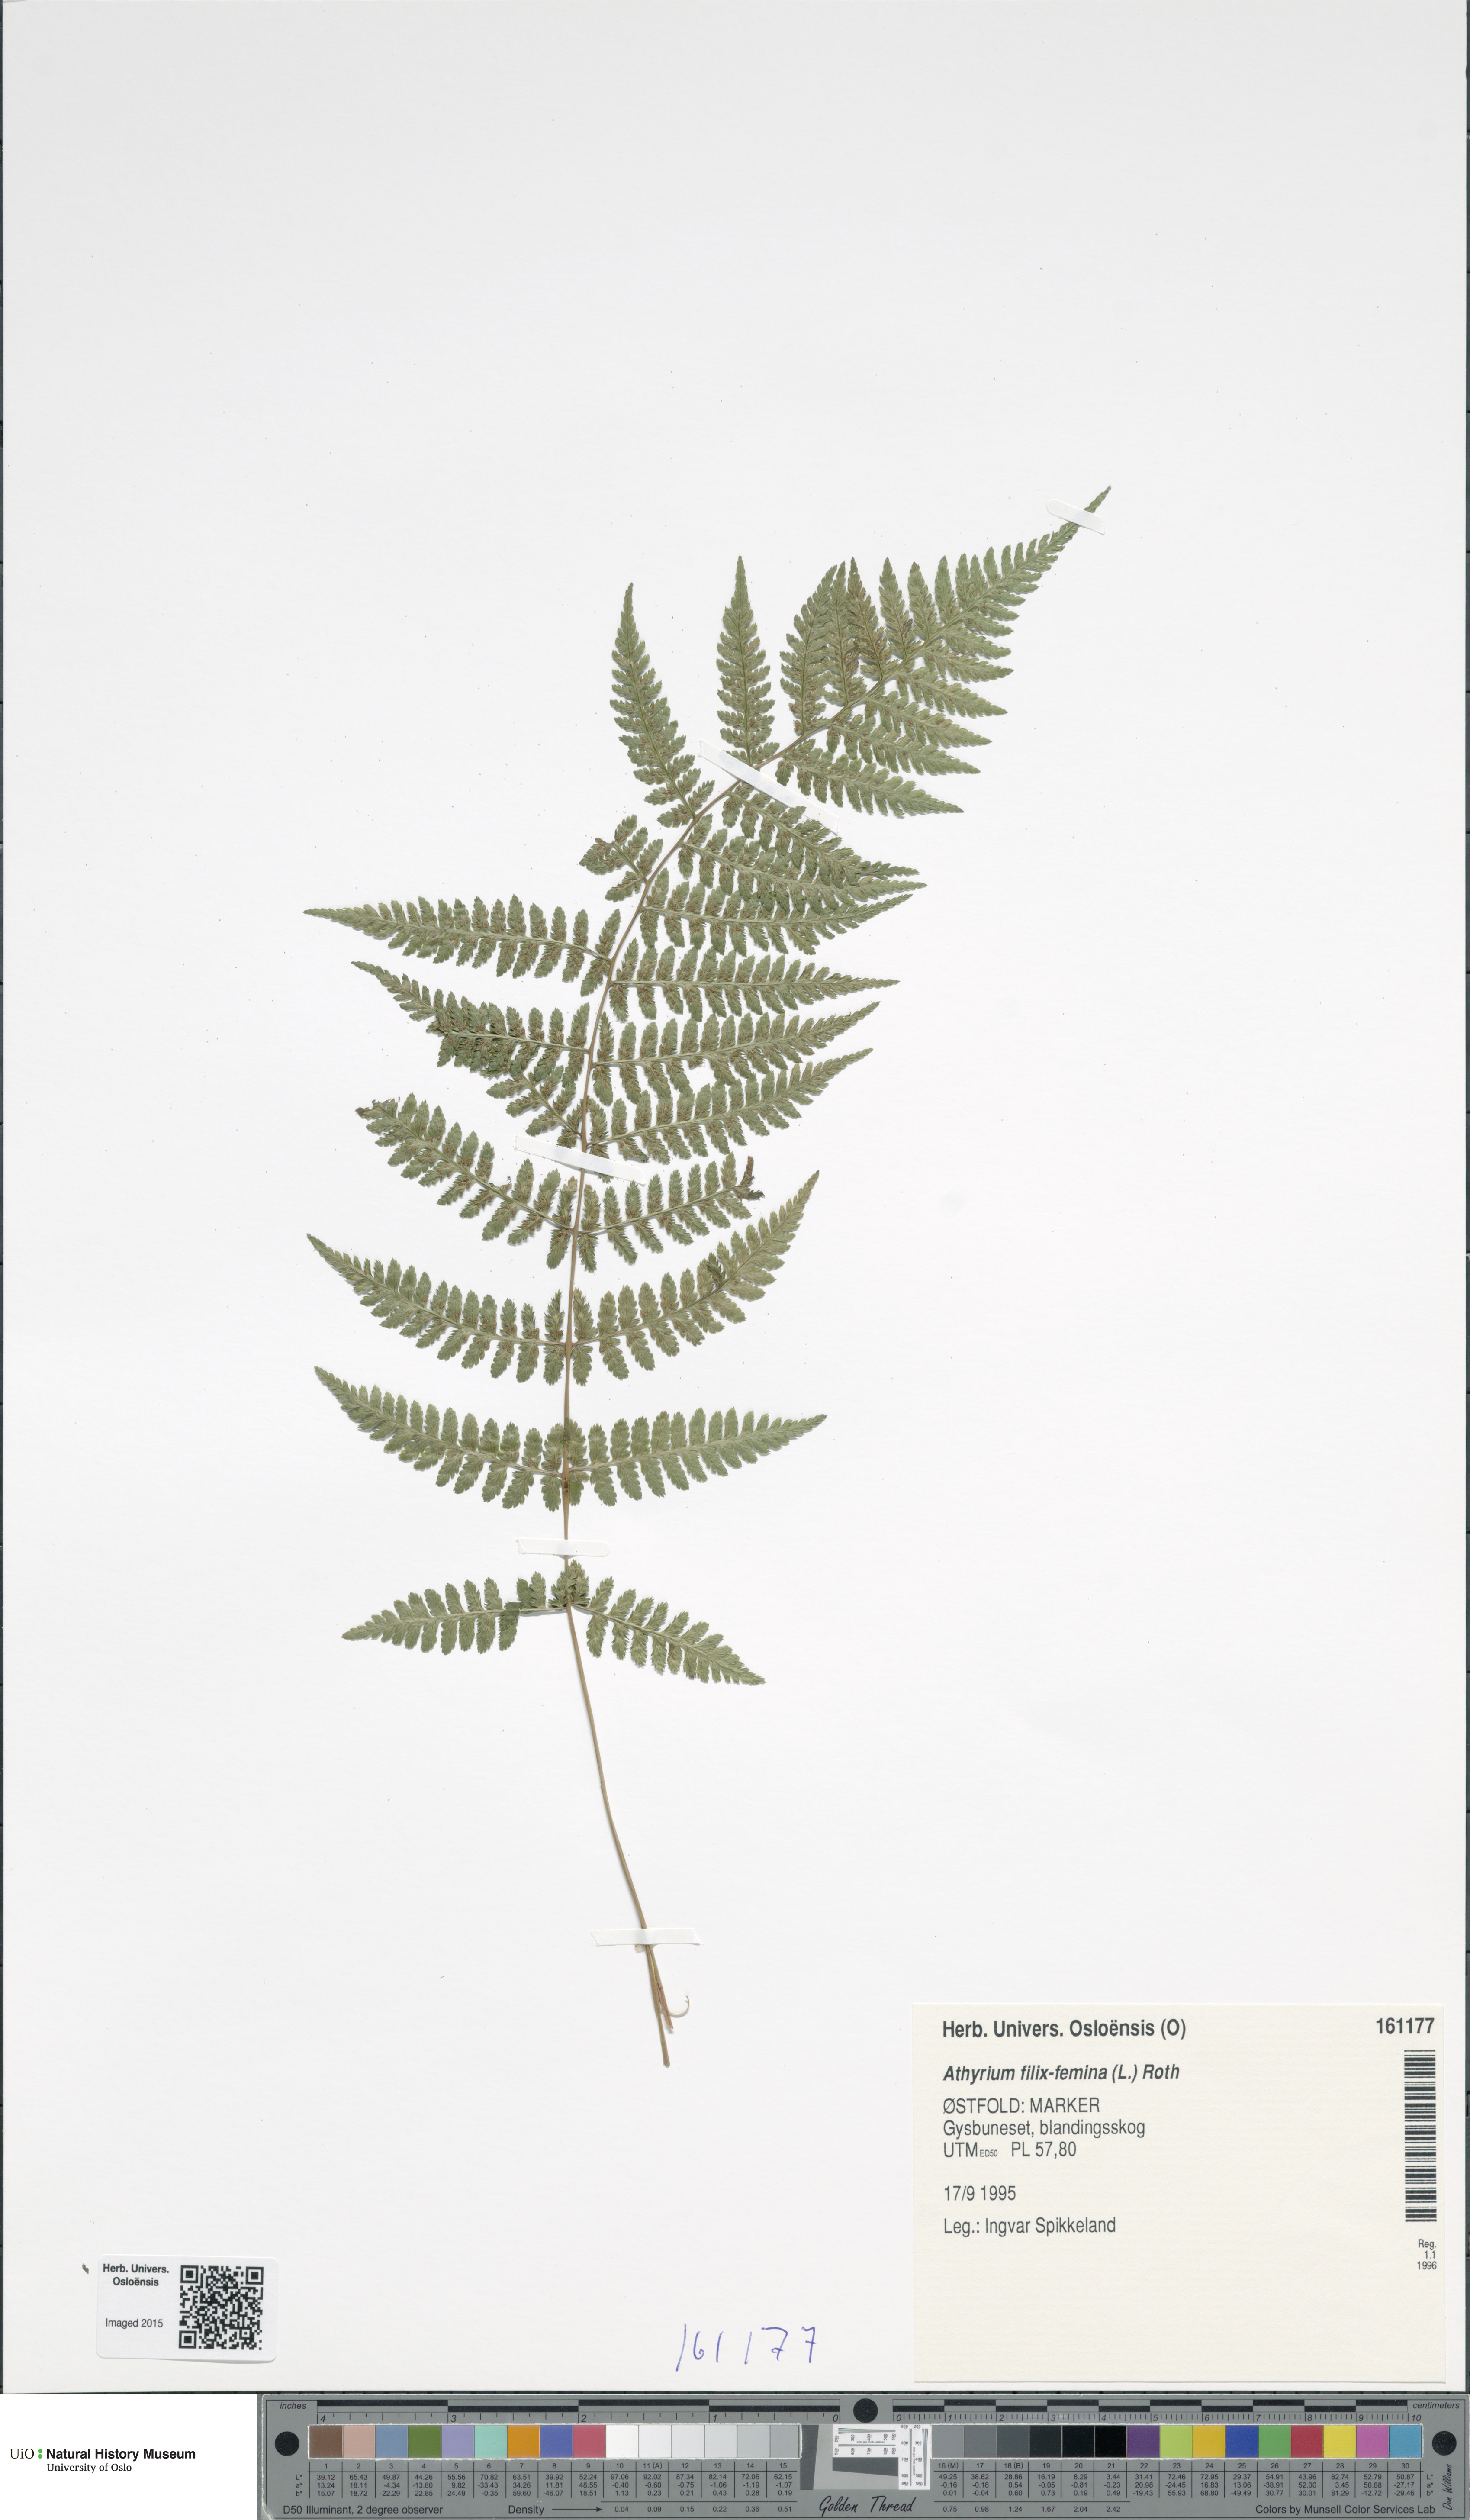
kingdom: Plantae
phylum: Tracheophyta
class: Polypodiopsida
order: Polypodiales
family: Athyriaceae
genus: Athyrium
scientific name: Athyrium filix-femina
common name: Lady fern
